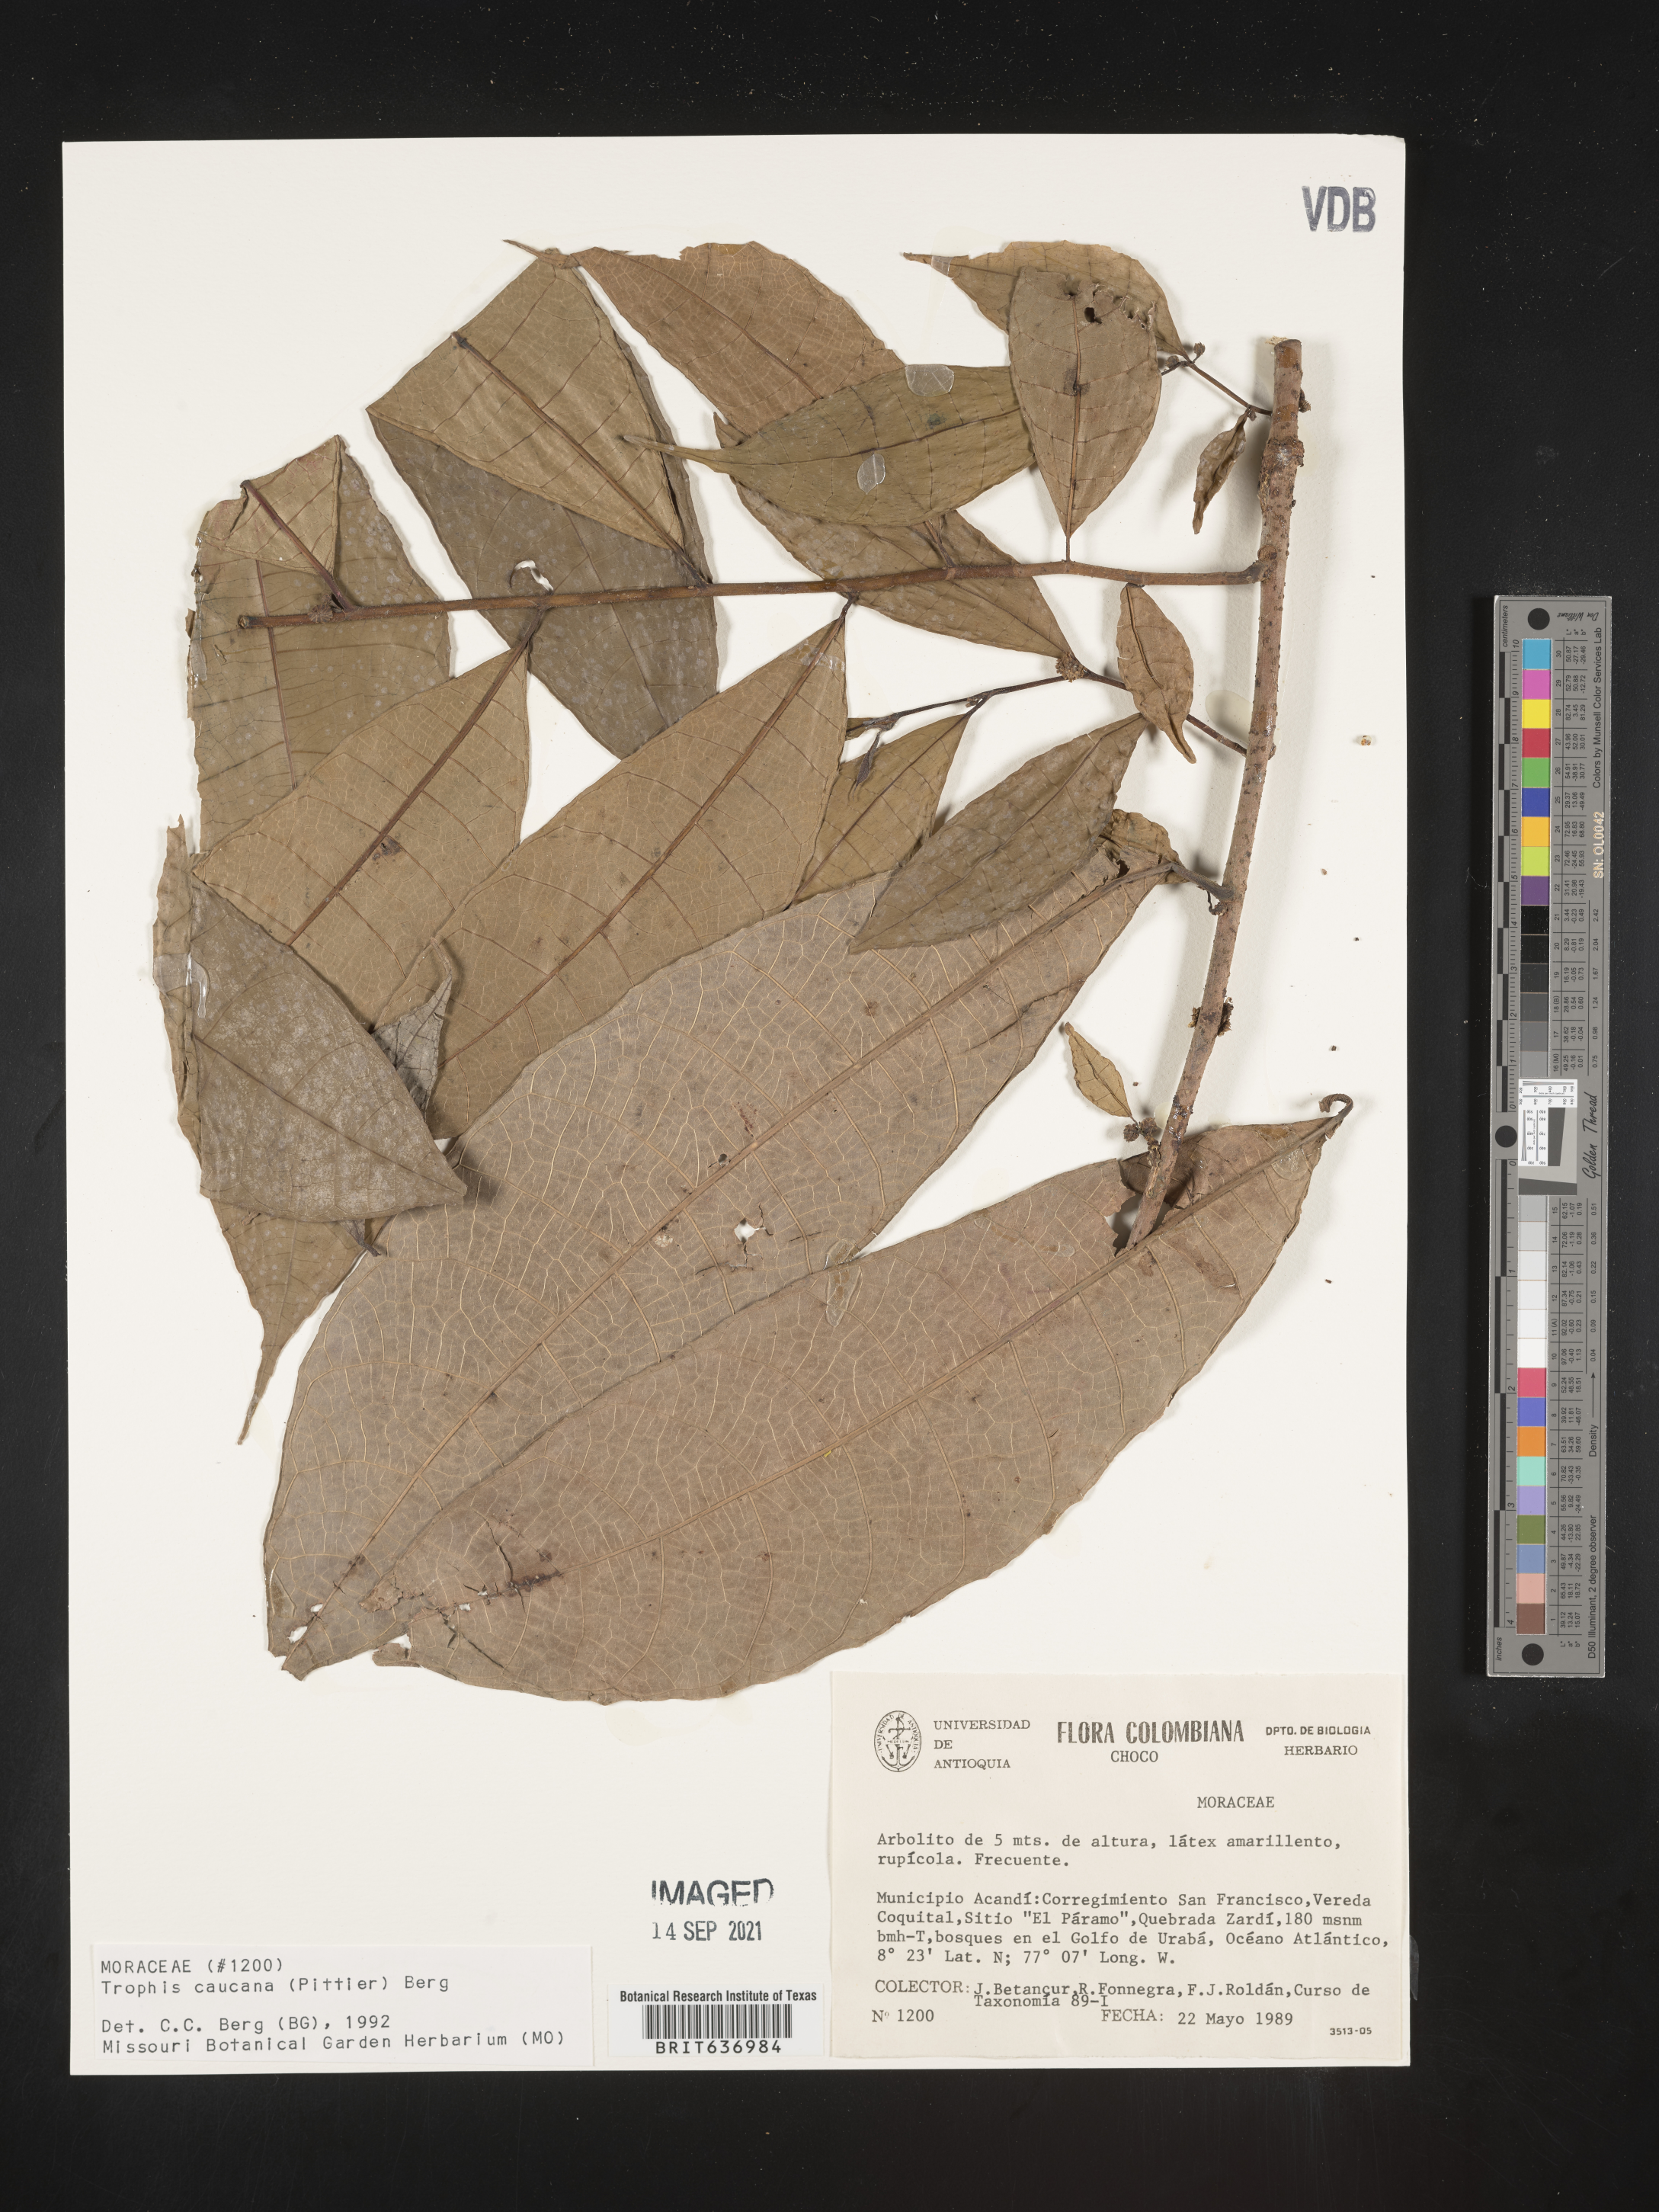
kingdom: Plantae
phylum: Tracheophyta
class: Magnoliopsida
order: Rosales
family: Moraceae
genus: Trophis
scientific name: Trophis
